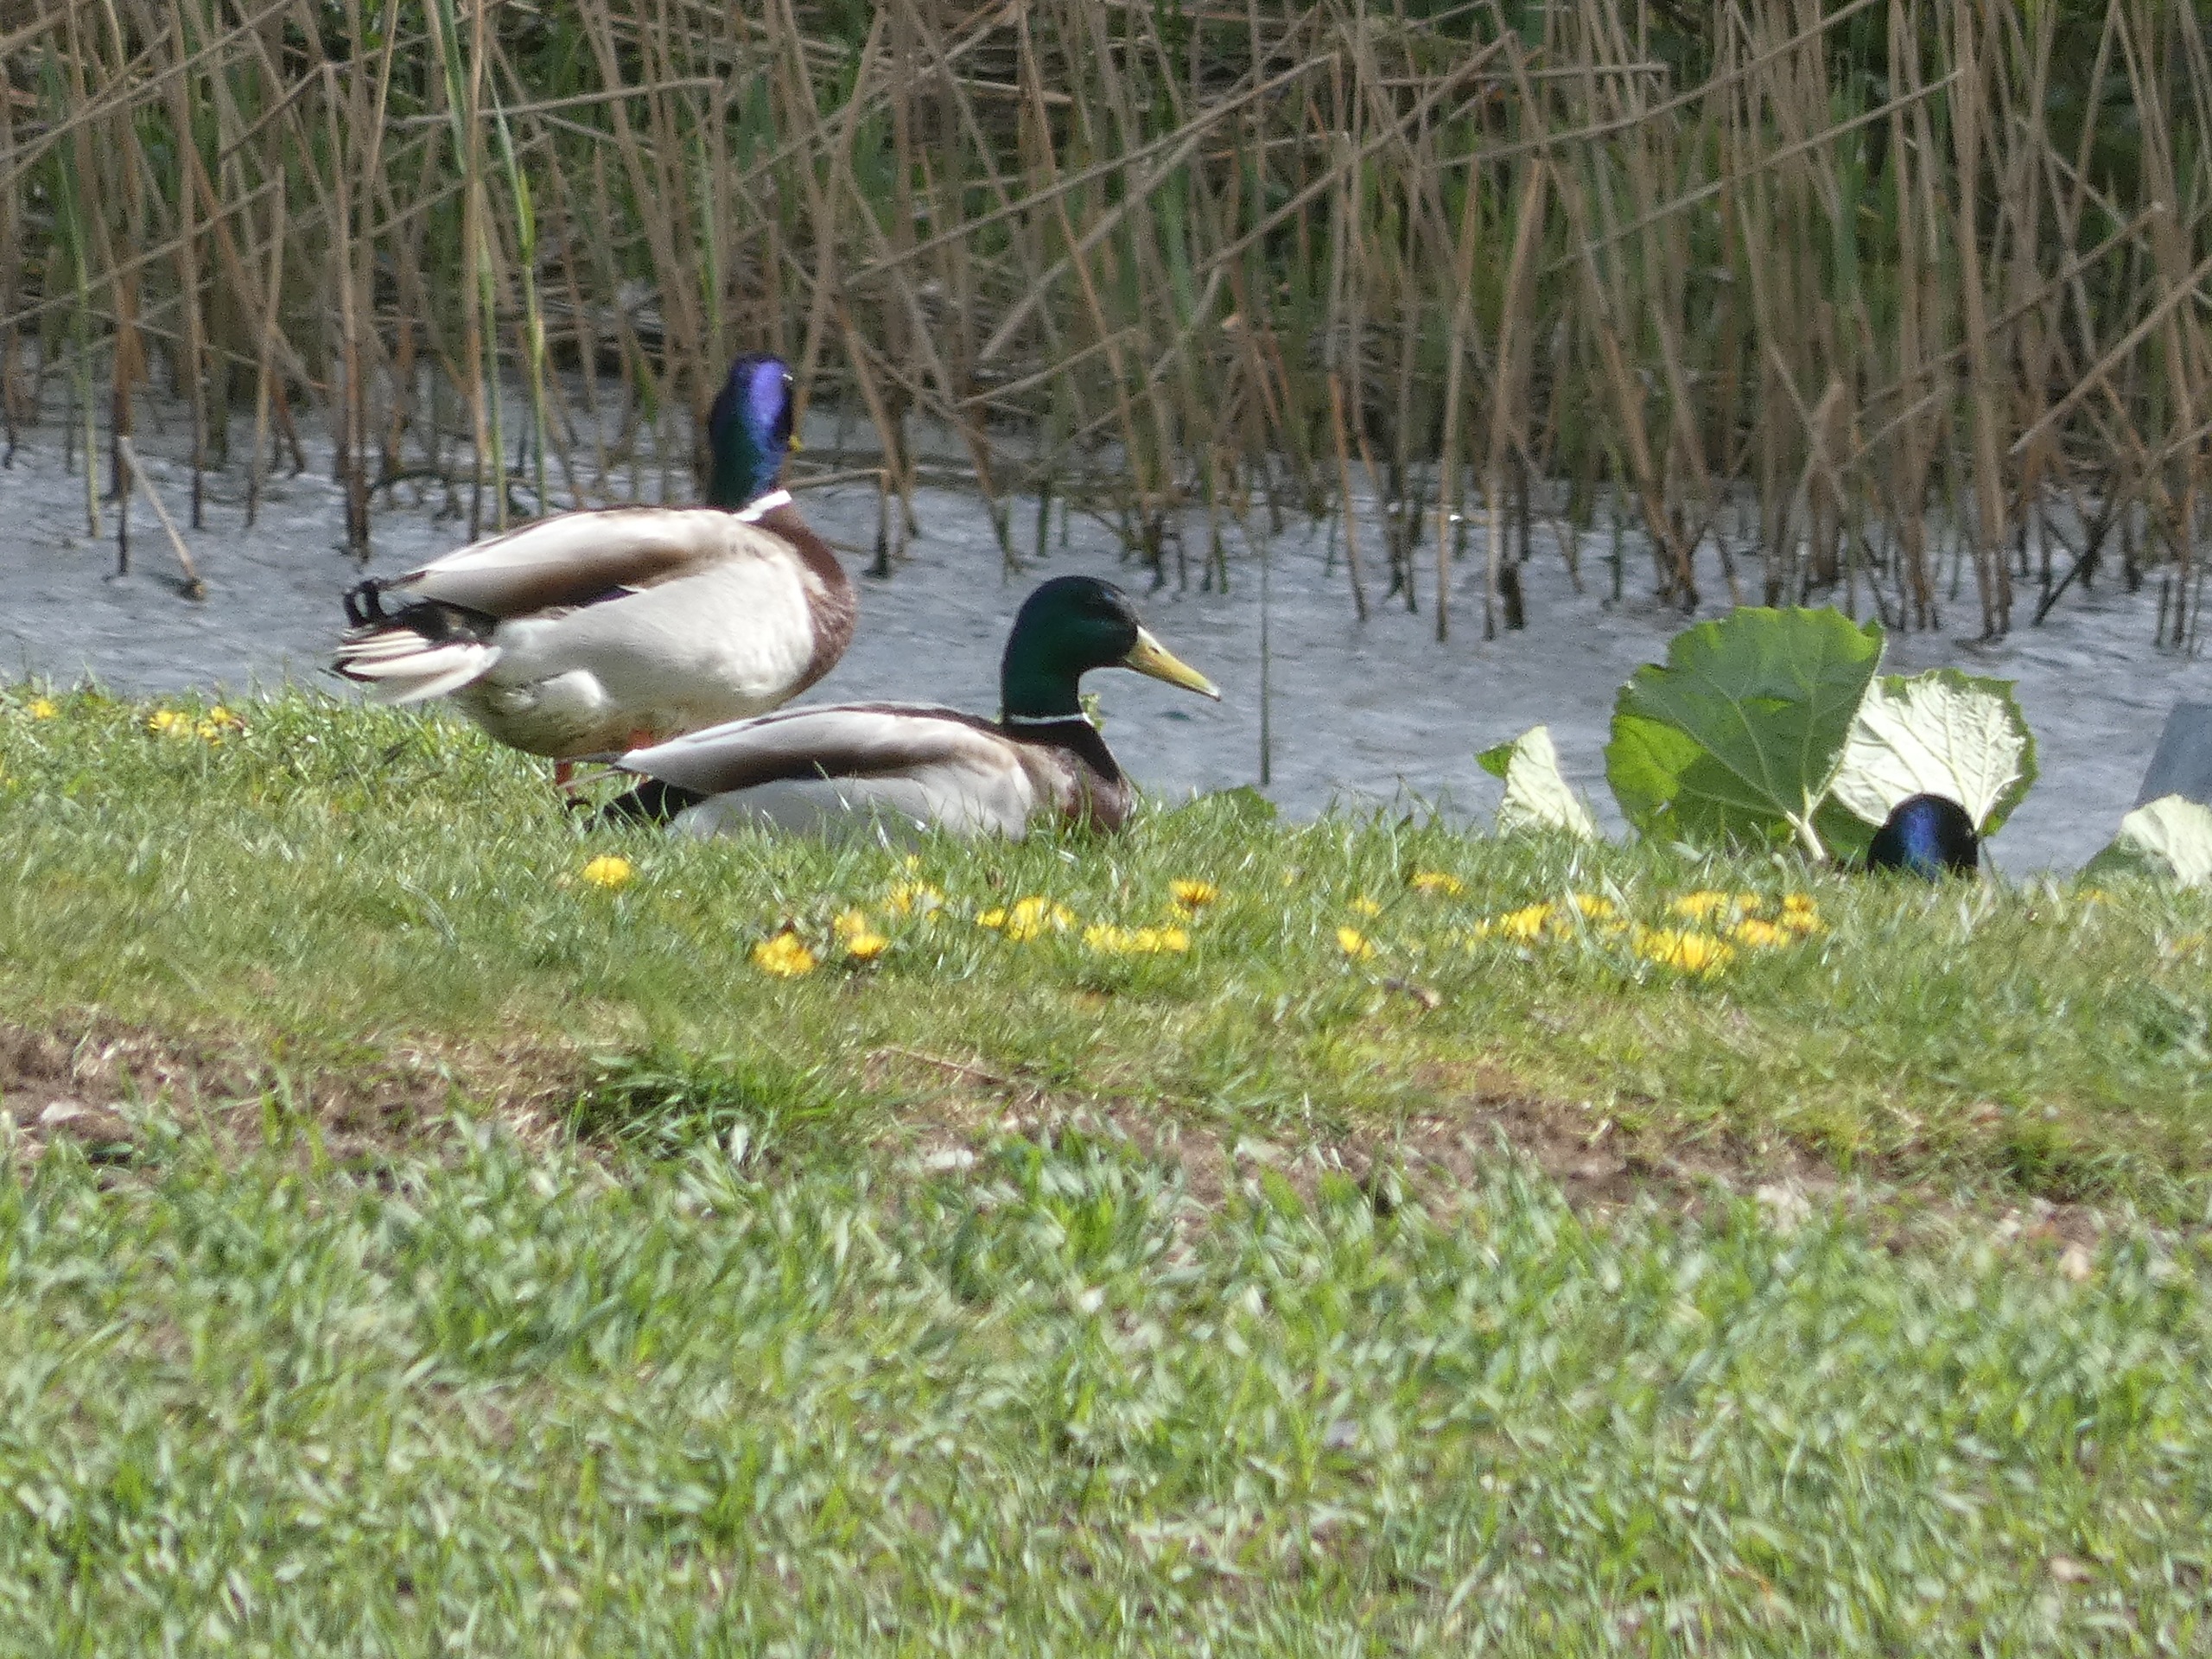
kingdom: Animalia
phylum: Chordata
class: Aves
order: Anseriformes
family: Anatidae
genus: Anas
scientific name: Anas platyrhynchos
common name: Gråand
